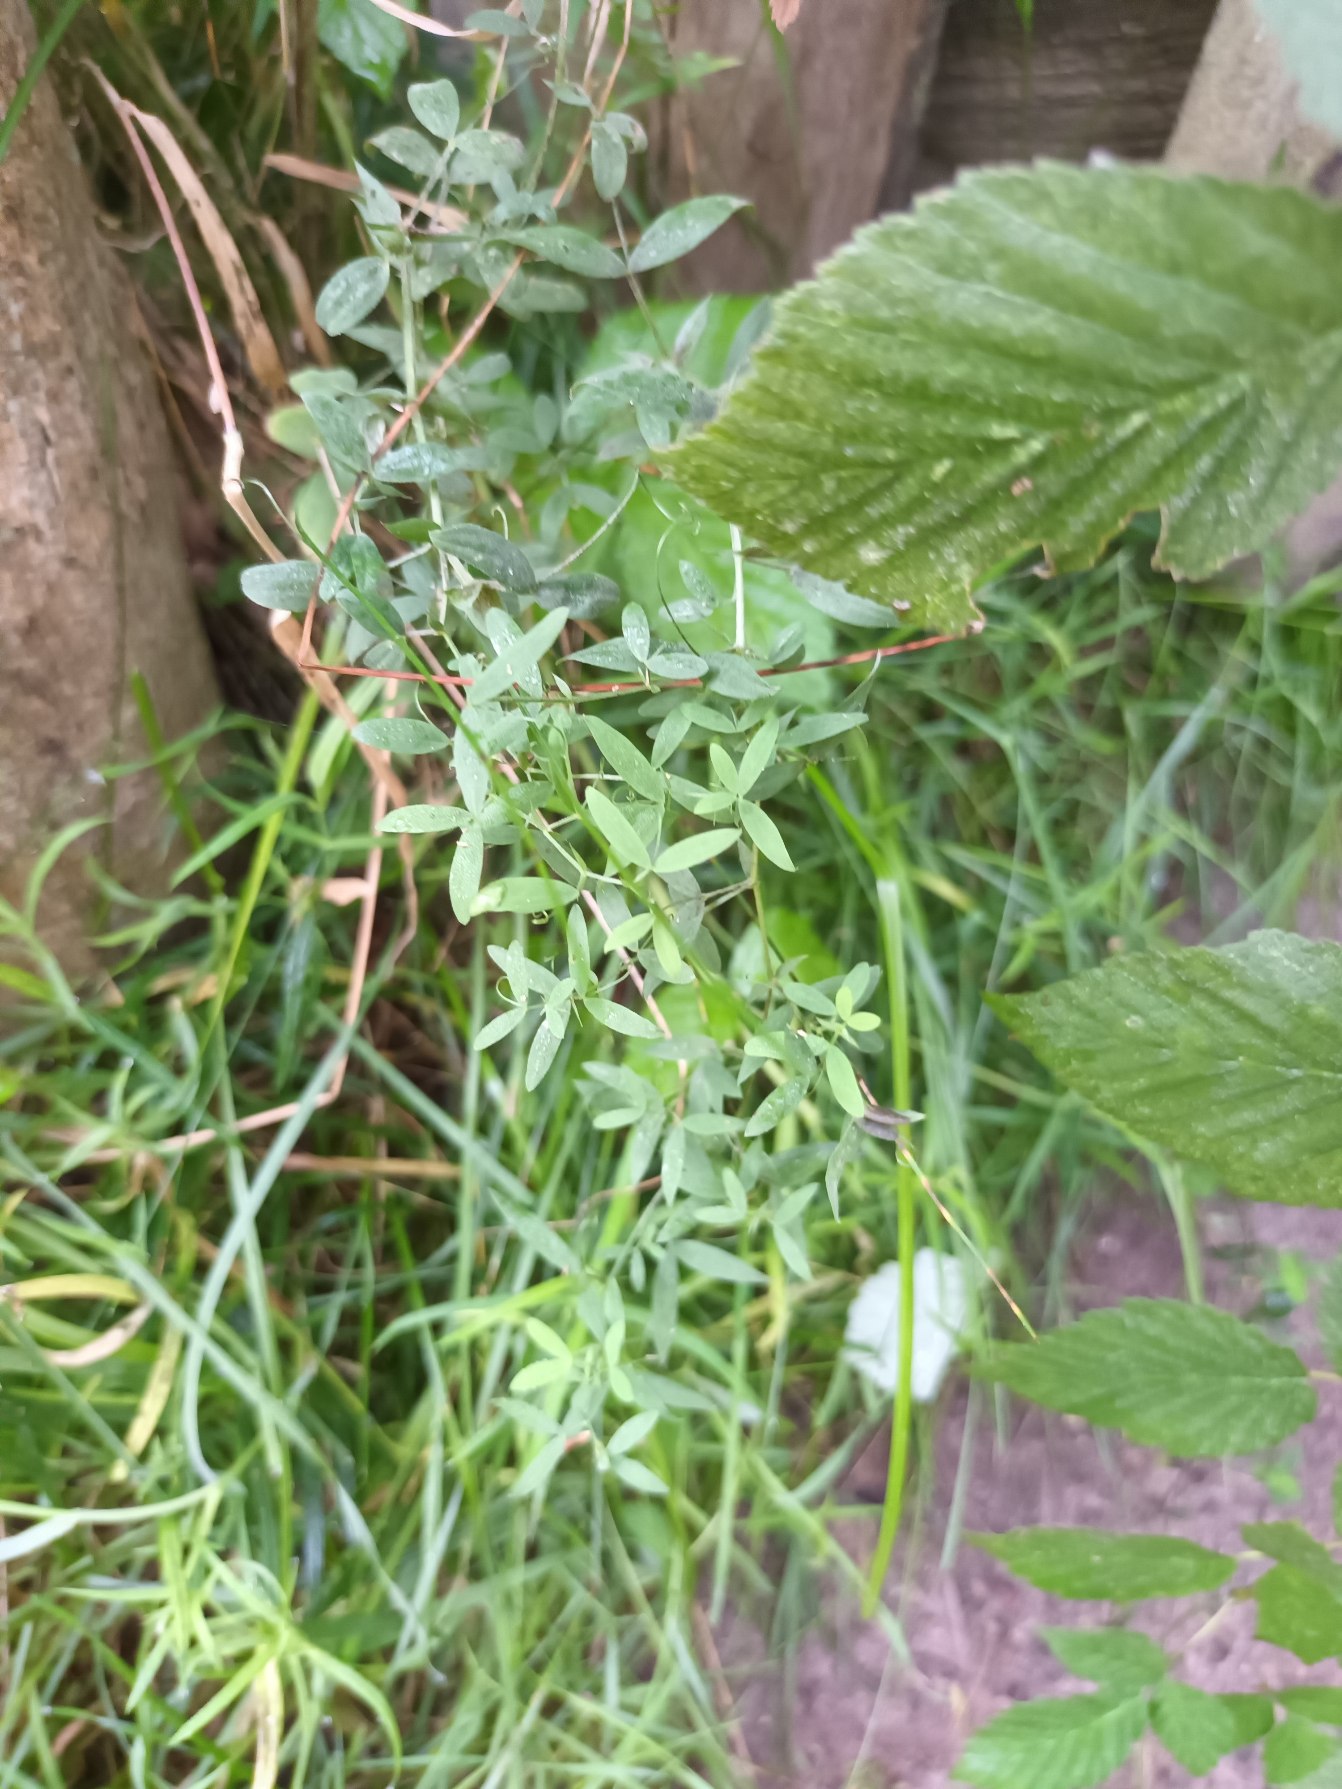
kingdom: Plantae
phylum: Tracheophyta
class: Magnoliopsida
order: Fabales
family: Fabaceae
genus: Lathyrus
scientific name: Lathyrus pratensis
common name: Gul fladbælg
